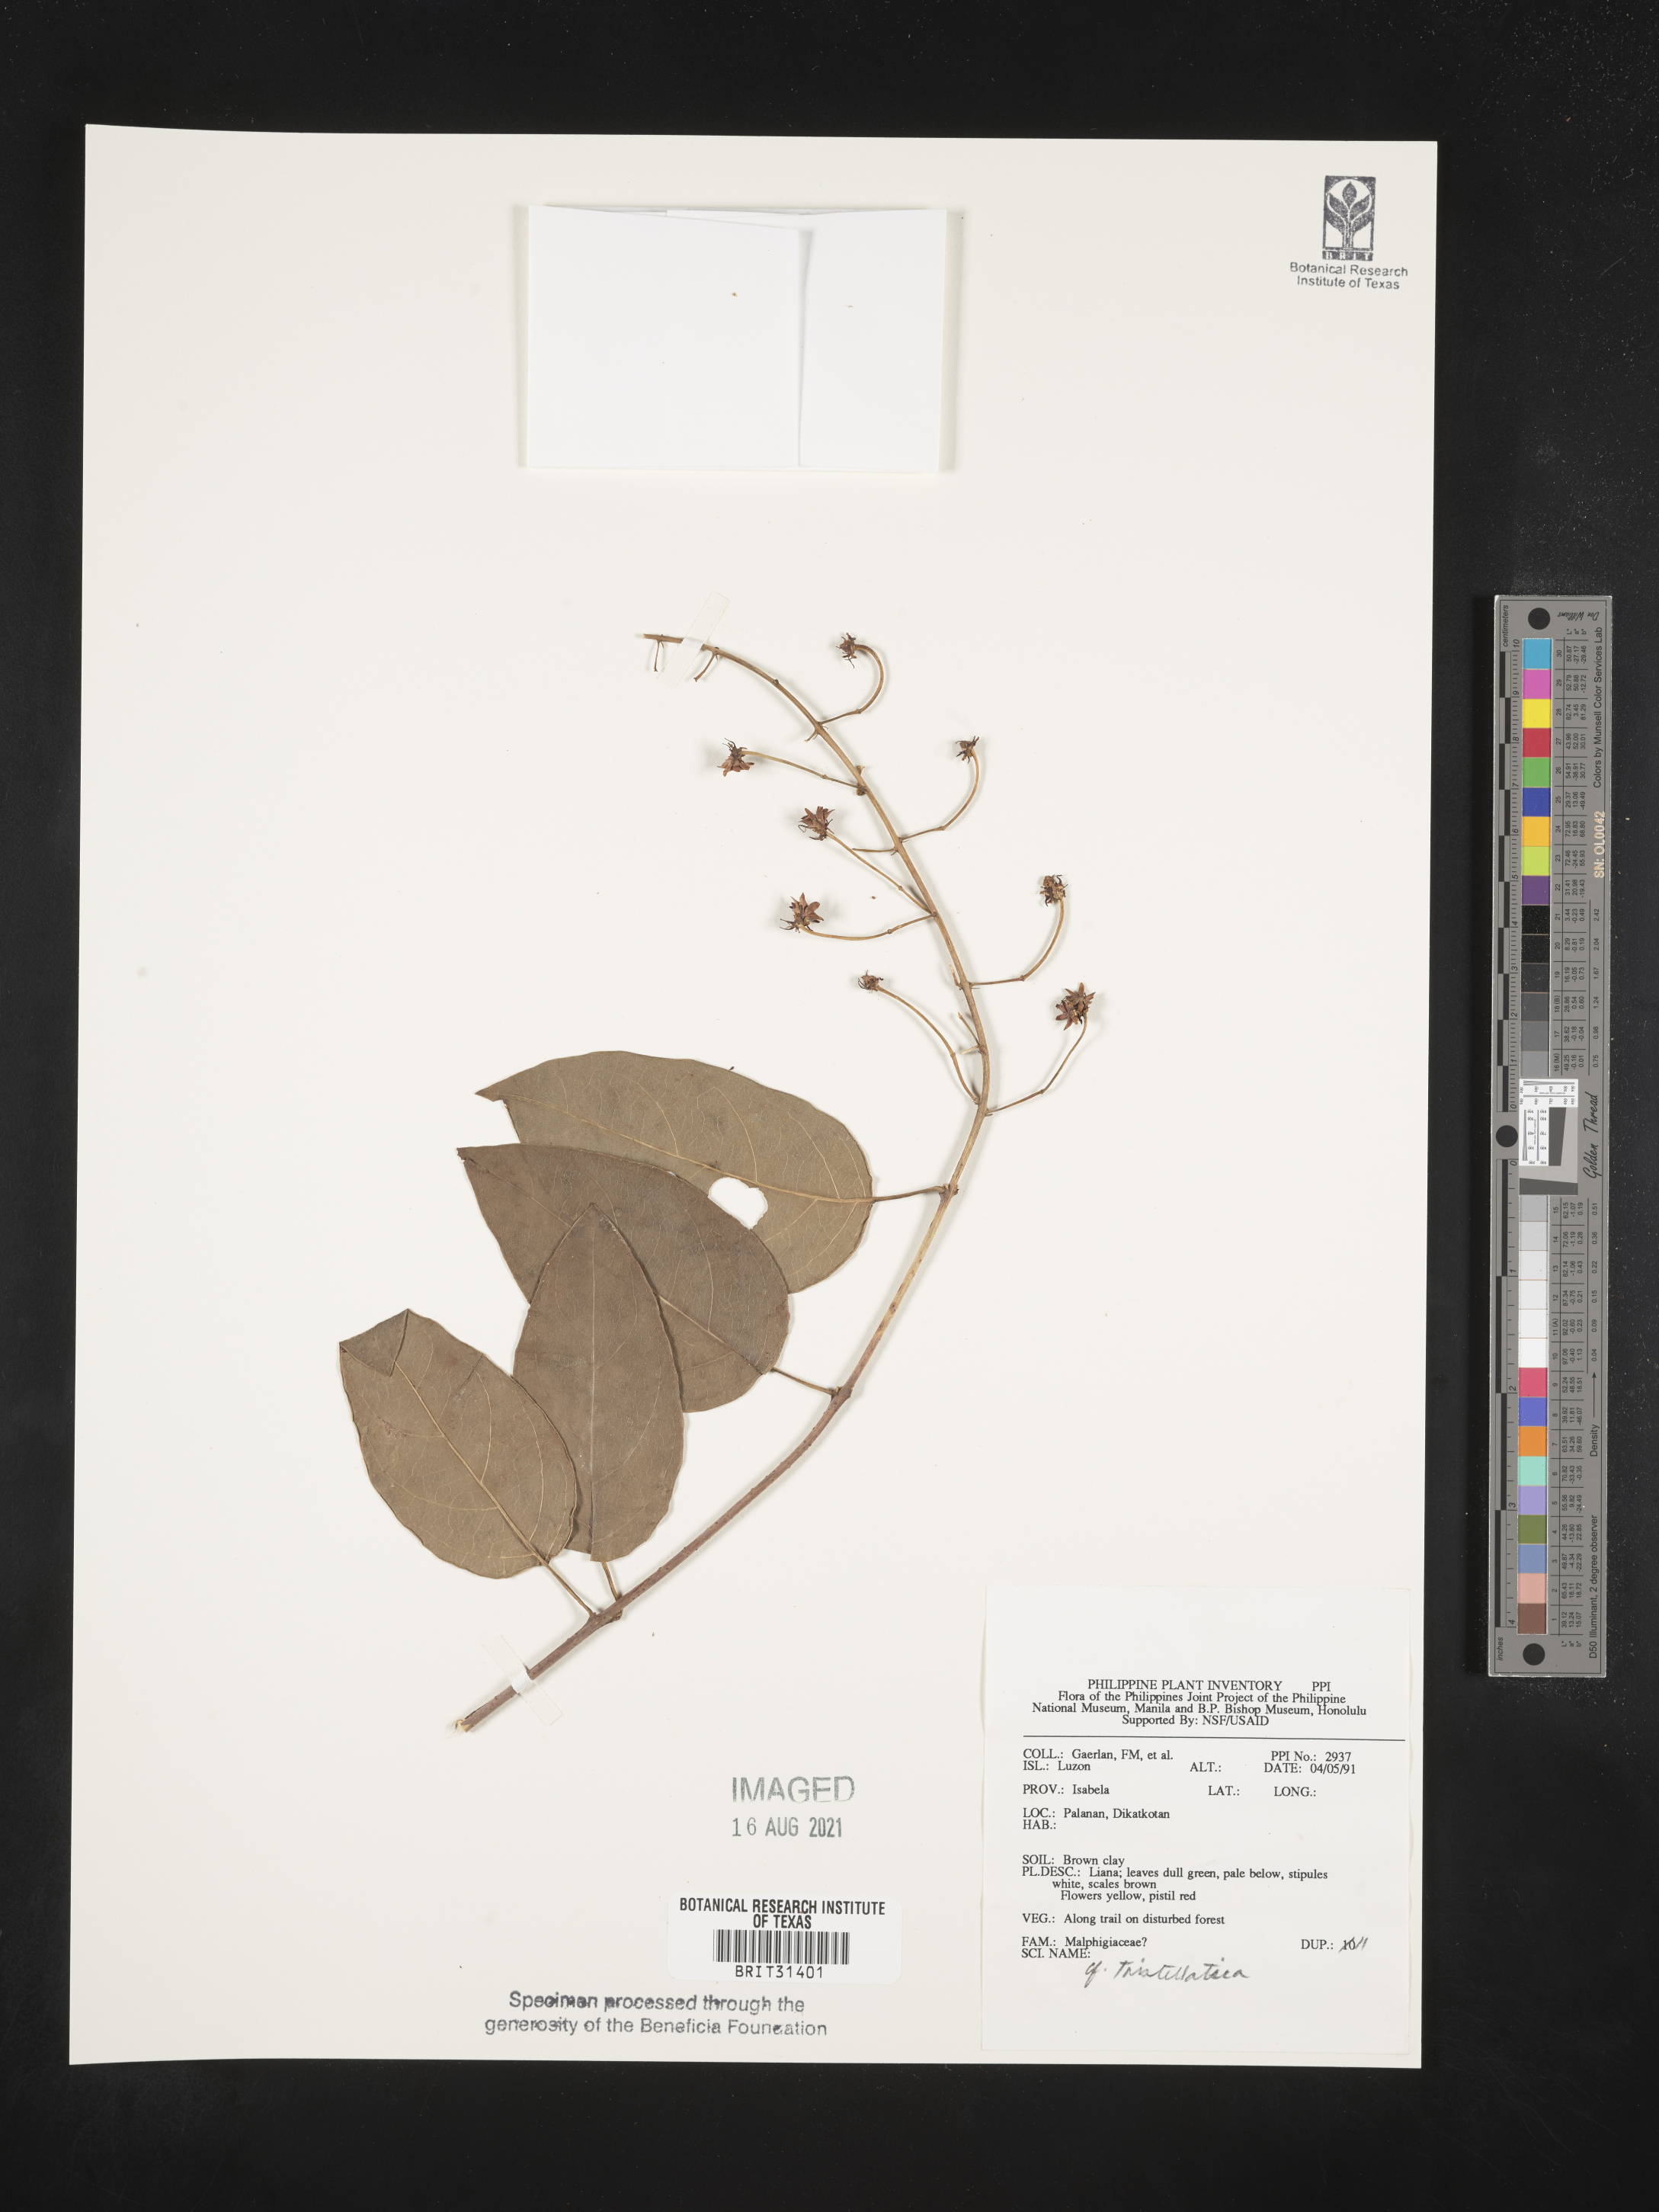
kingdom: Plantae
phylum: Tracheophyta
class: Magnoliopsida
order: Malpighiales
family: Malpighiaceae
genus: Tristellateia
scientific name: Tristellateia
